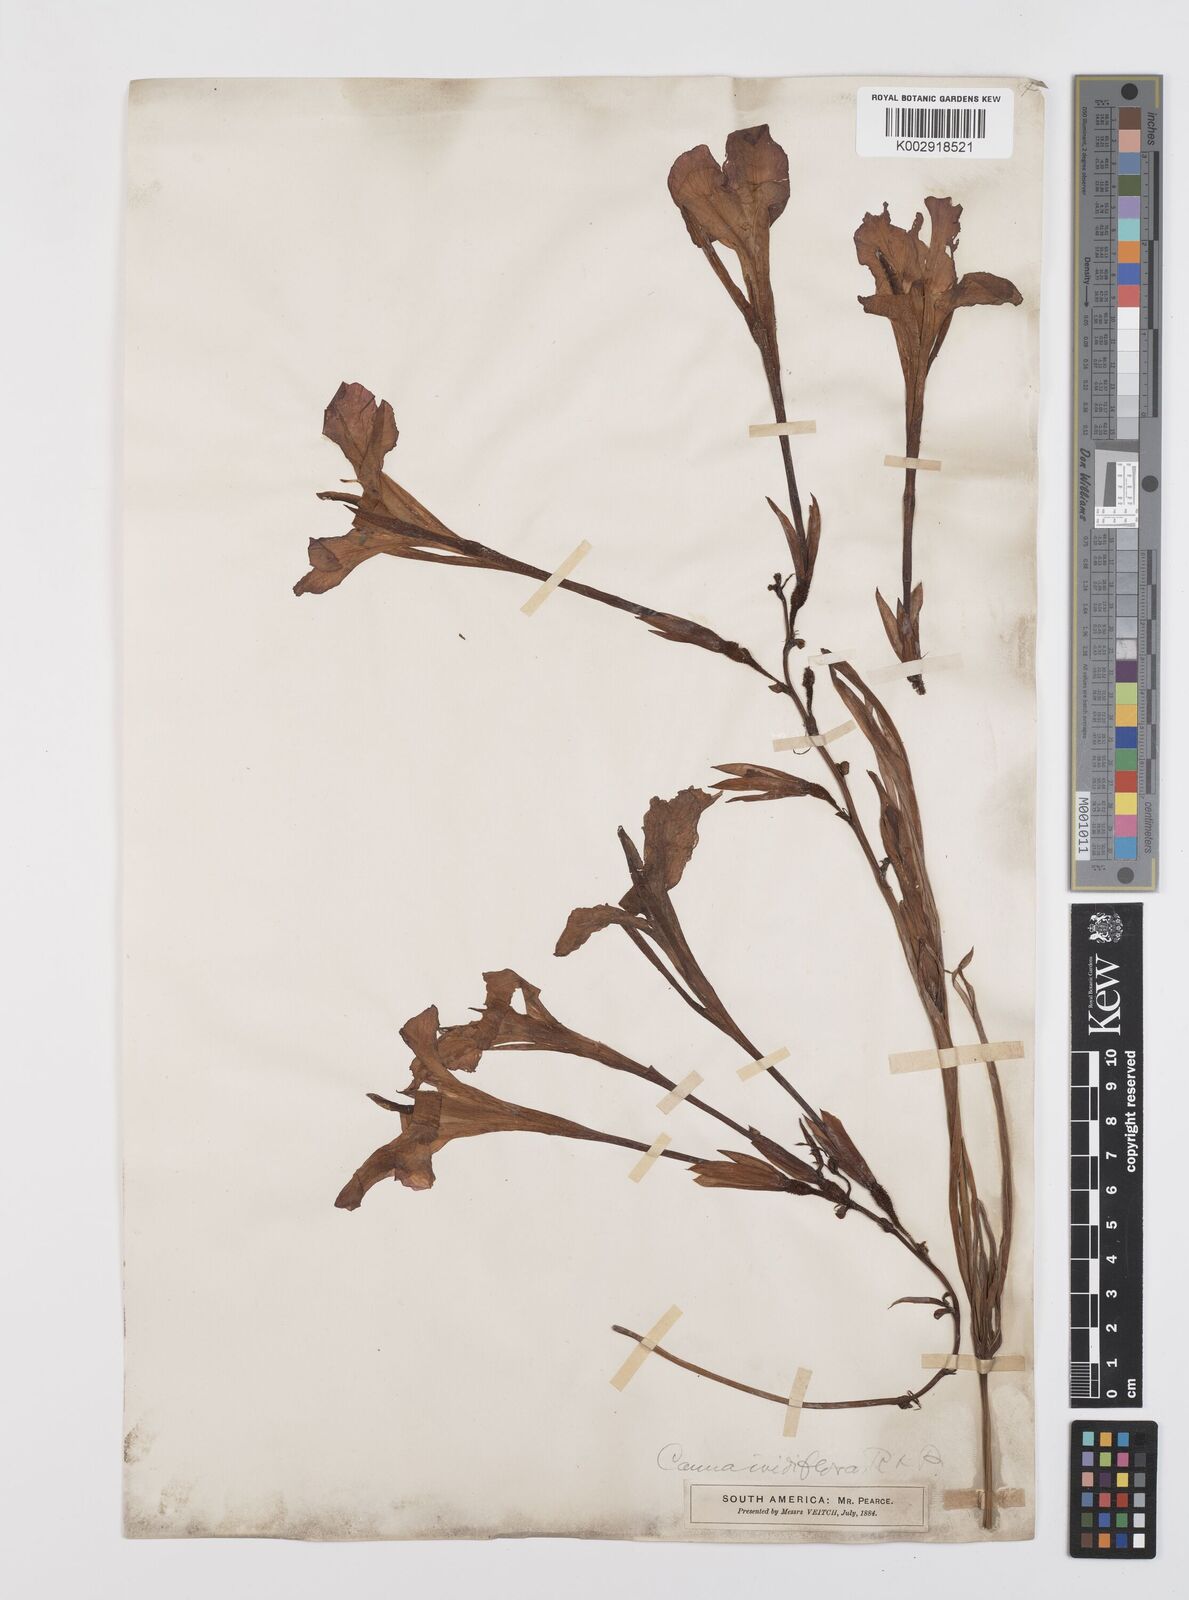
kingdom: Plantae
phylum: Tracheophyta
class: Liliopsida
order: Zingiberales
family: Cannaceae
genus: Canna
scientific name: Canna iridiflora
